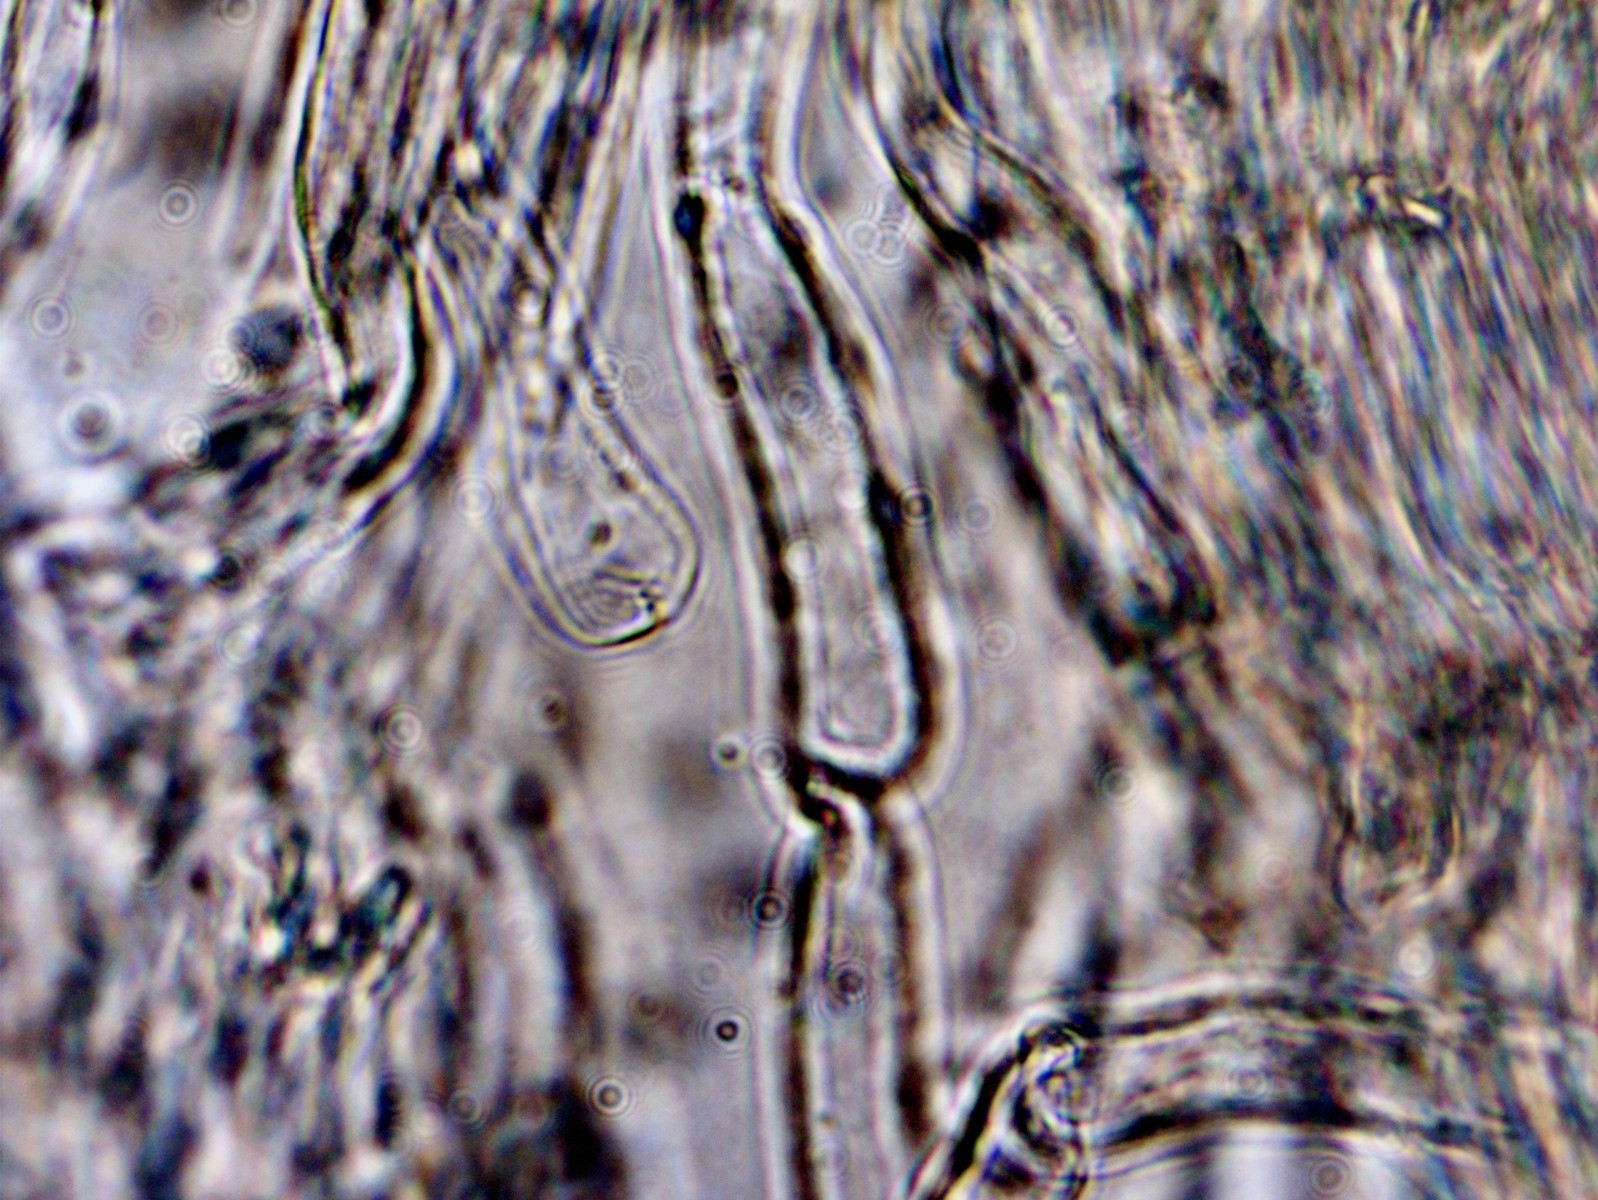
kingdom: Fungi
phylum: Basidiomycota
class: Agaricomycetes
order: Agaricales
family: Mycenaceae
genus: Mycena
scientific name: Mycena
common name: huesvamp
